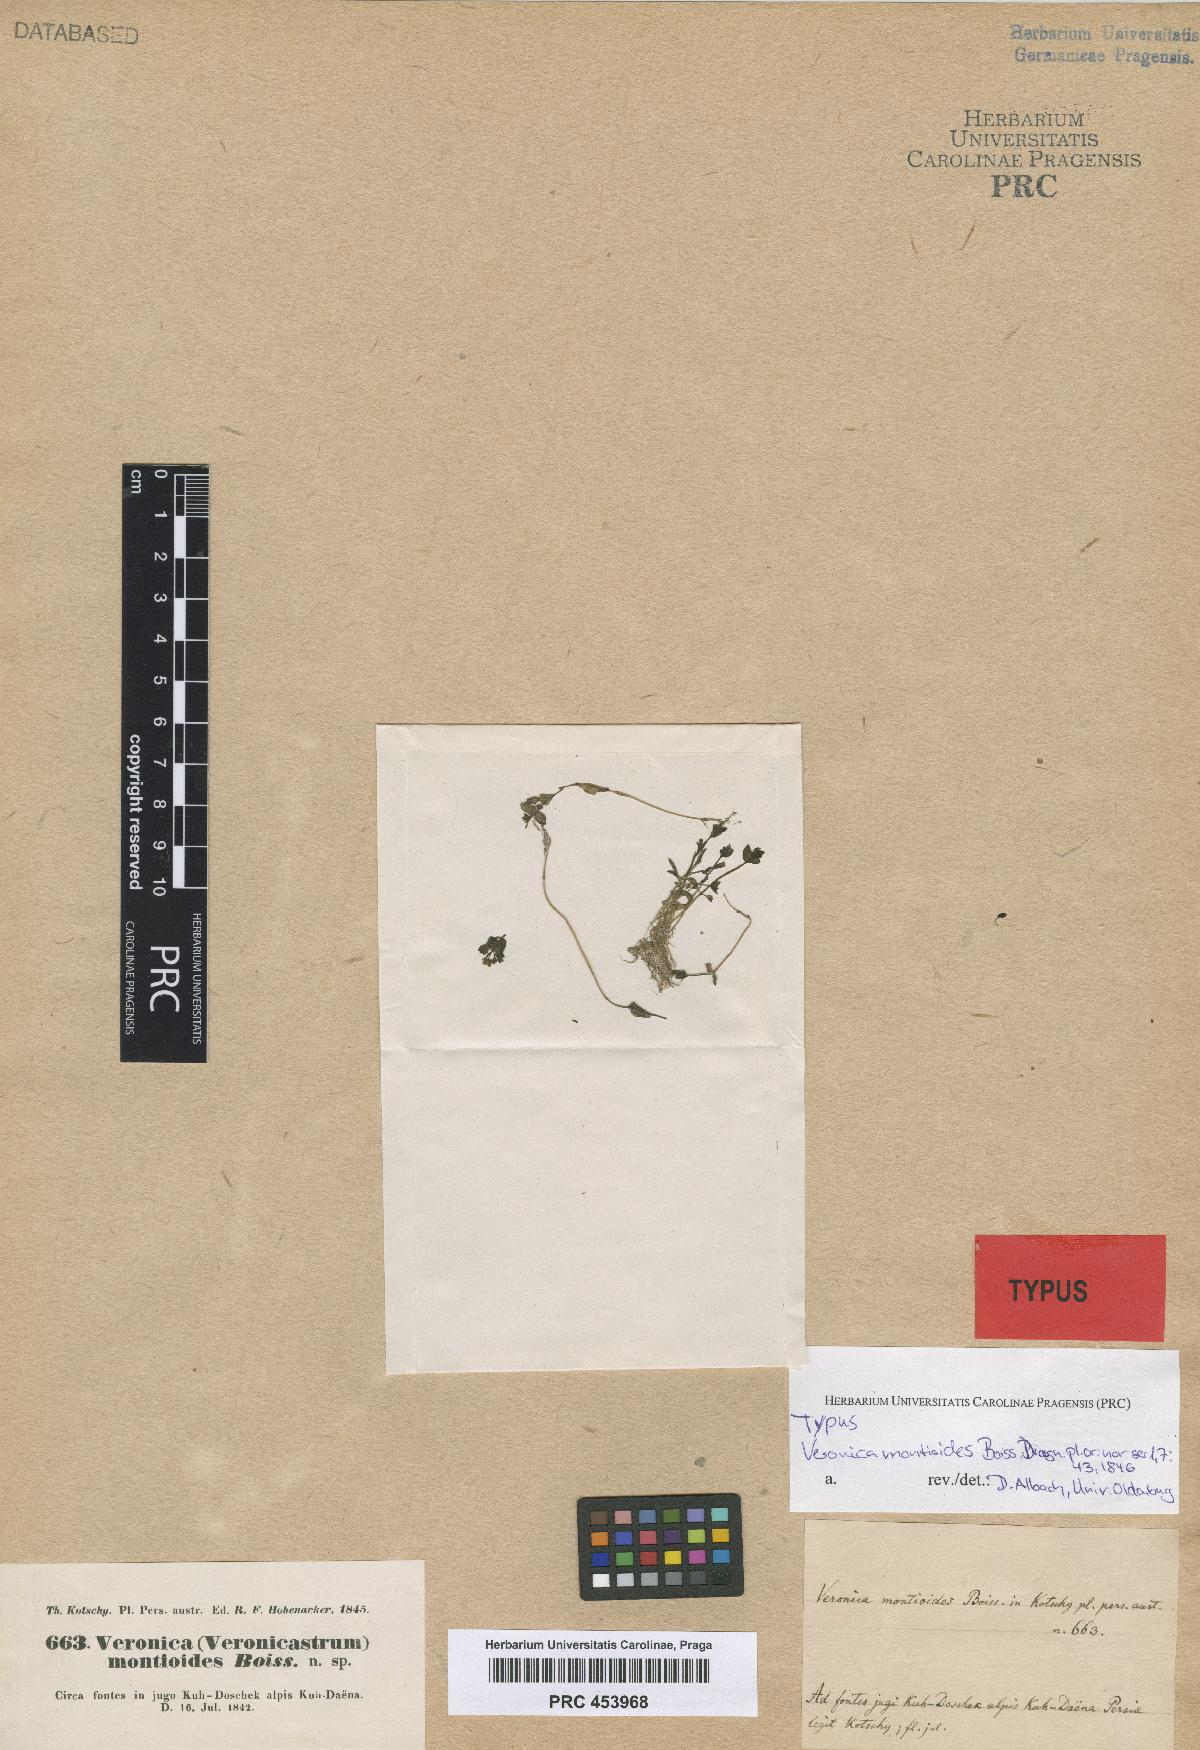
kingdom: Plantae
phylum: Tracheophyta
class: Magnoliopsida
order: Lamiales
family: Plantaginaceae
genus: Veronica
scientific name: Veronica oxycarpa
